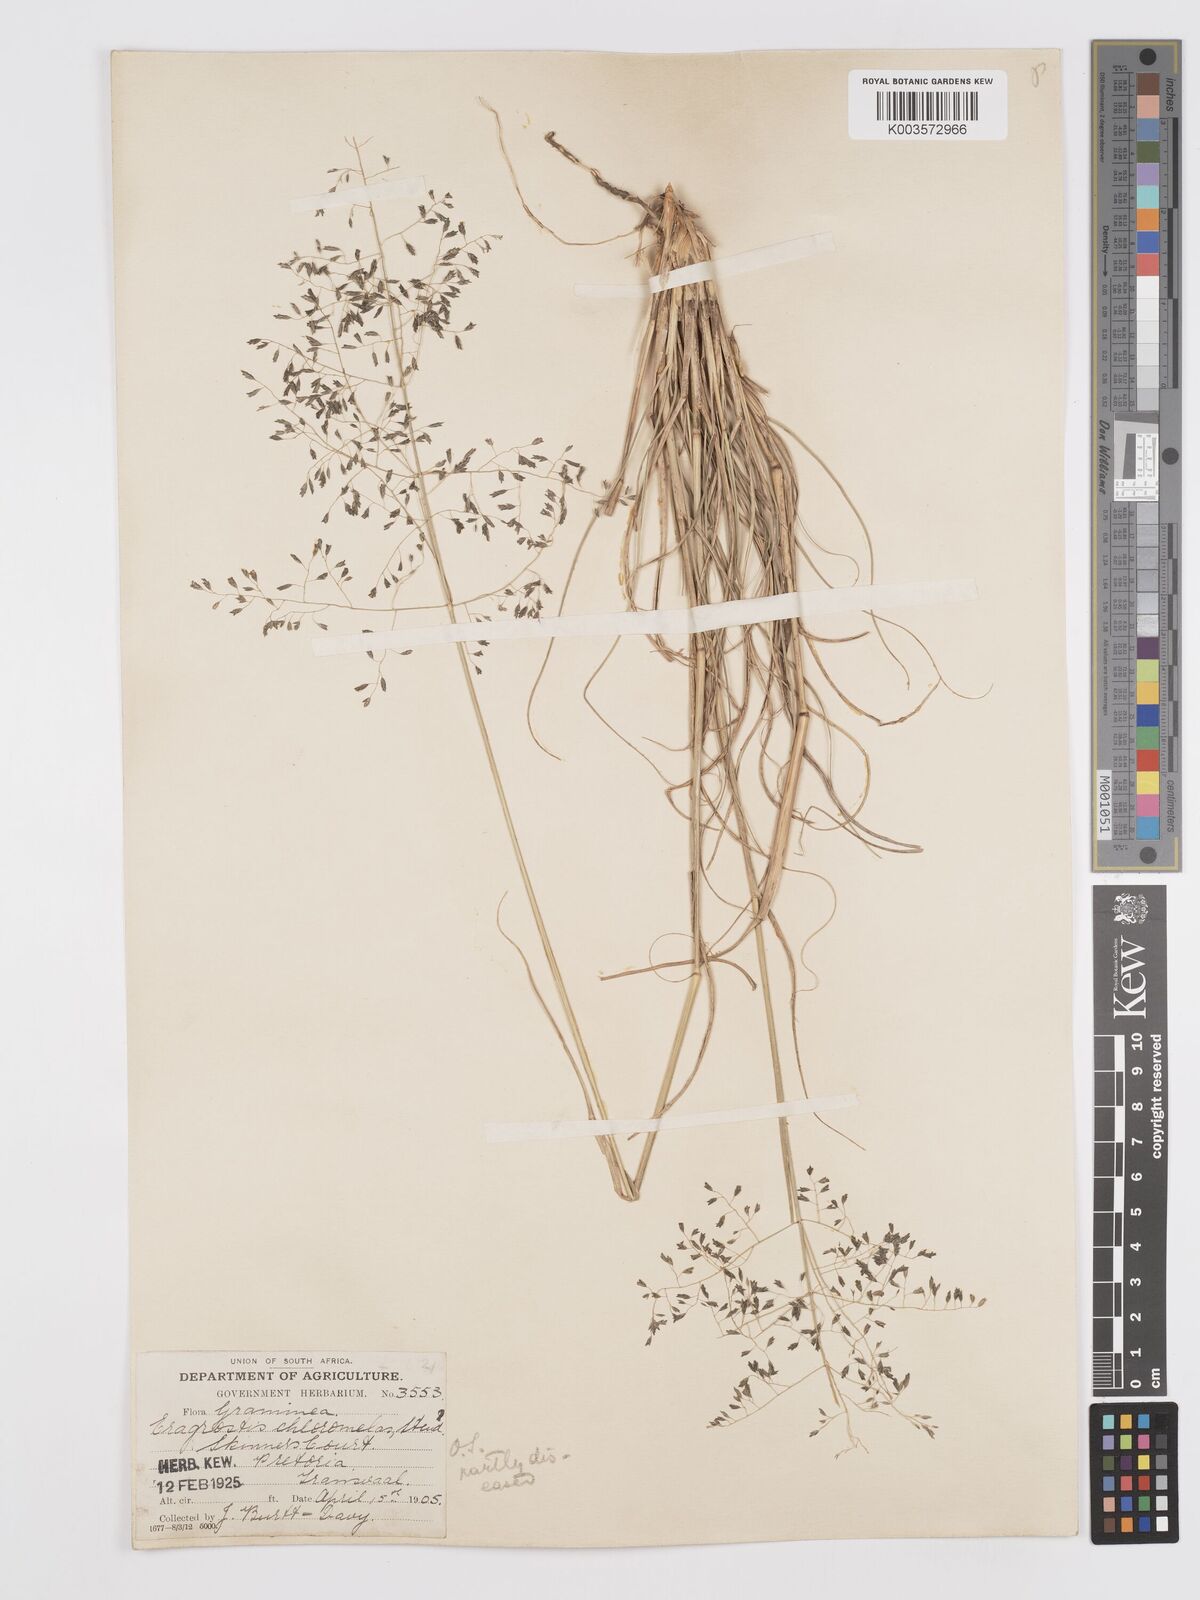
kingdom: Plantae
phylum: Tracheophyta
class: Liliopsida
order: Poales
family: Poaceae
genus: Eragrostis
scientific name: Eragrostis curvula
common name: African love-grass
